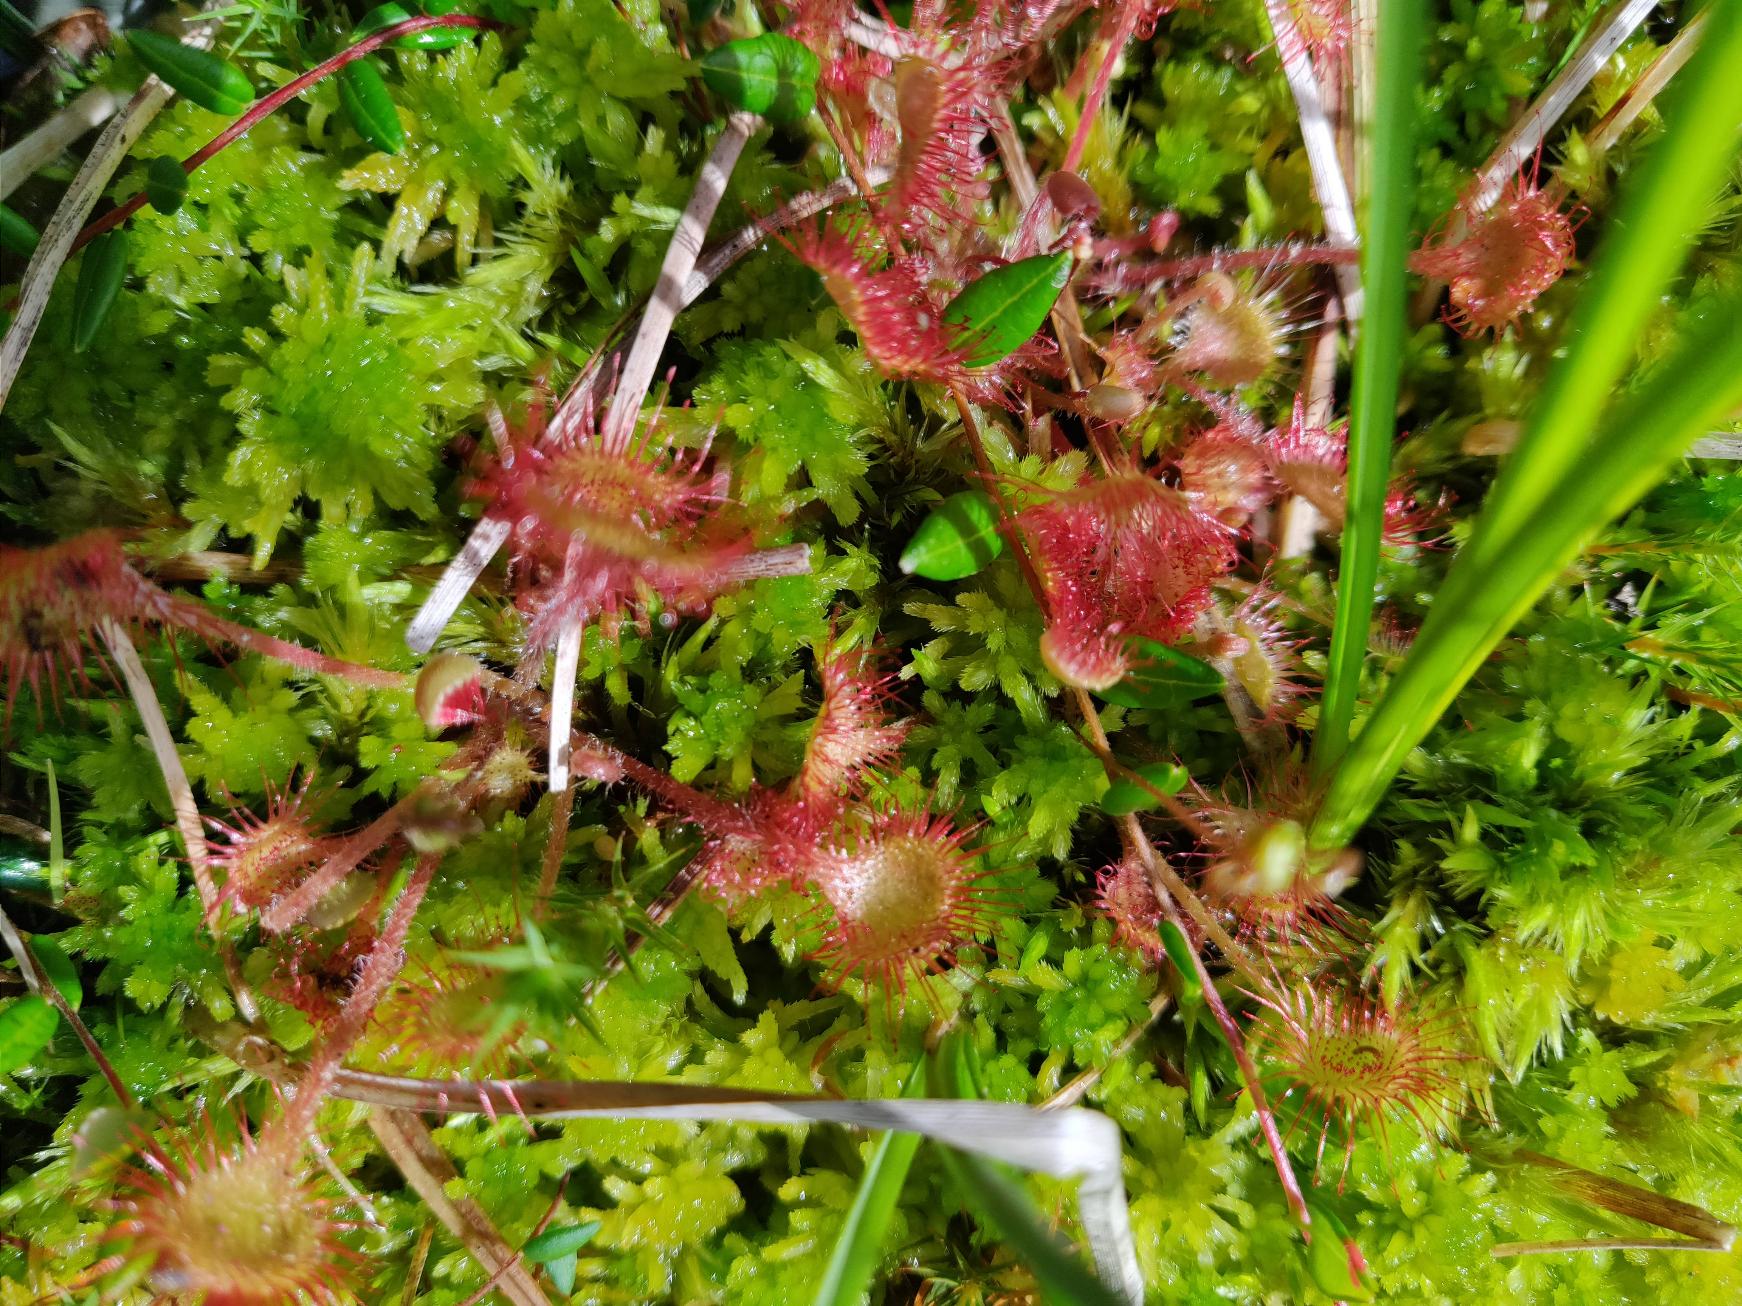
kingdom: Plantae
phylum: Tracheophyta
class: Magnoliopsida
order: Caryophyllales
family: Droseraceae
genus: Drosera
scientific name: Drosera rotundifolia
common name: Rundbladet soldug
